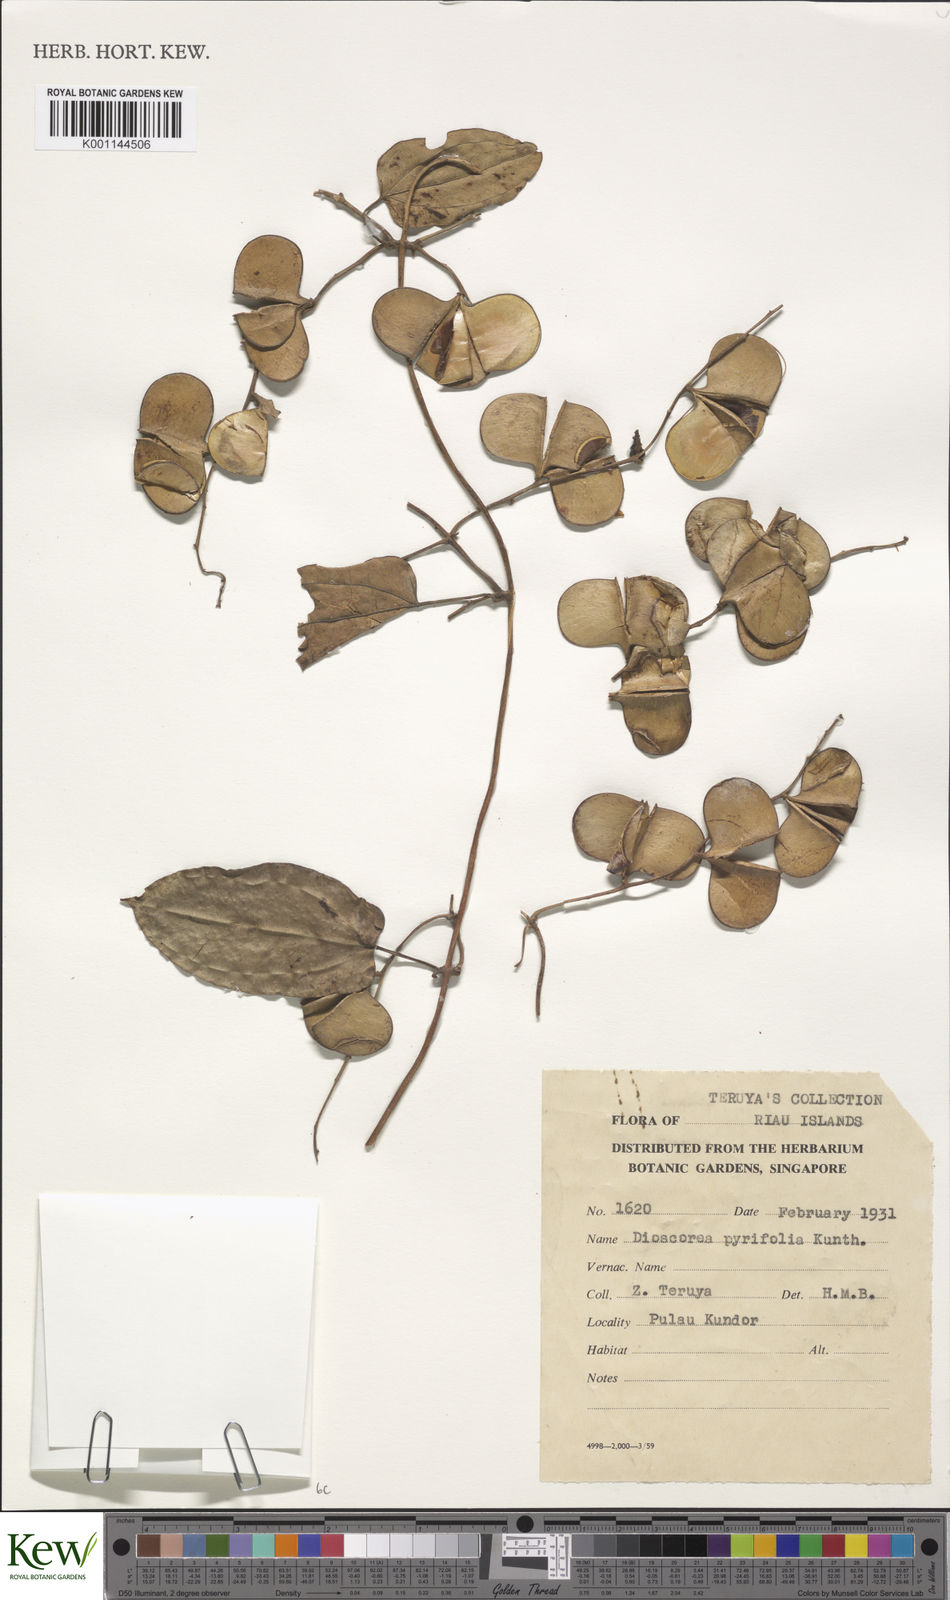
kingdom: Plantae
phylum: Tracheophyta
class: Liliopsida
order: Dioscoreales
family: Dioscoreaceae
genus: Dioscorea
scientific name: Dioscorea pyrifolia
